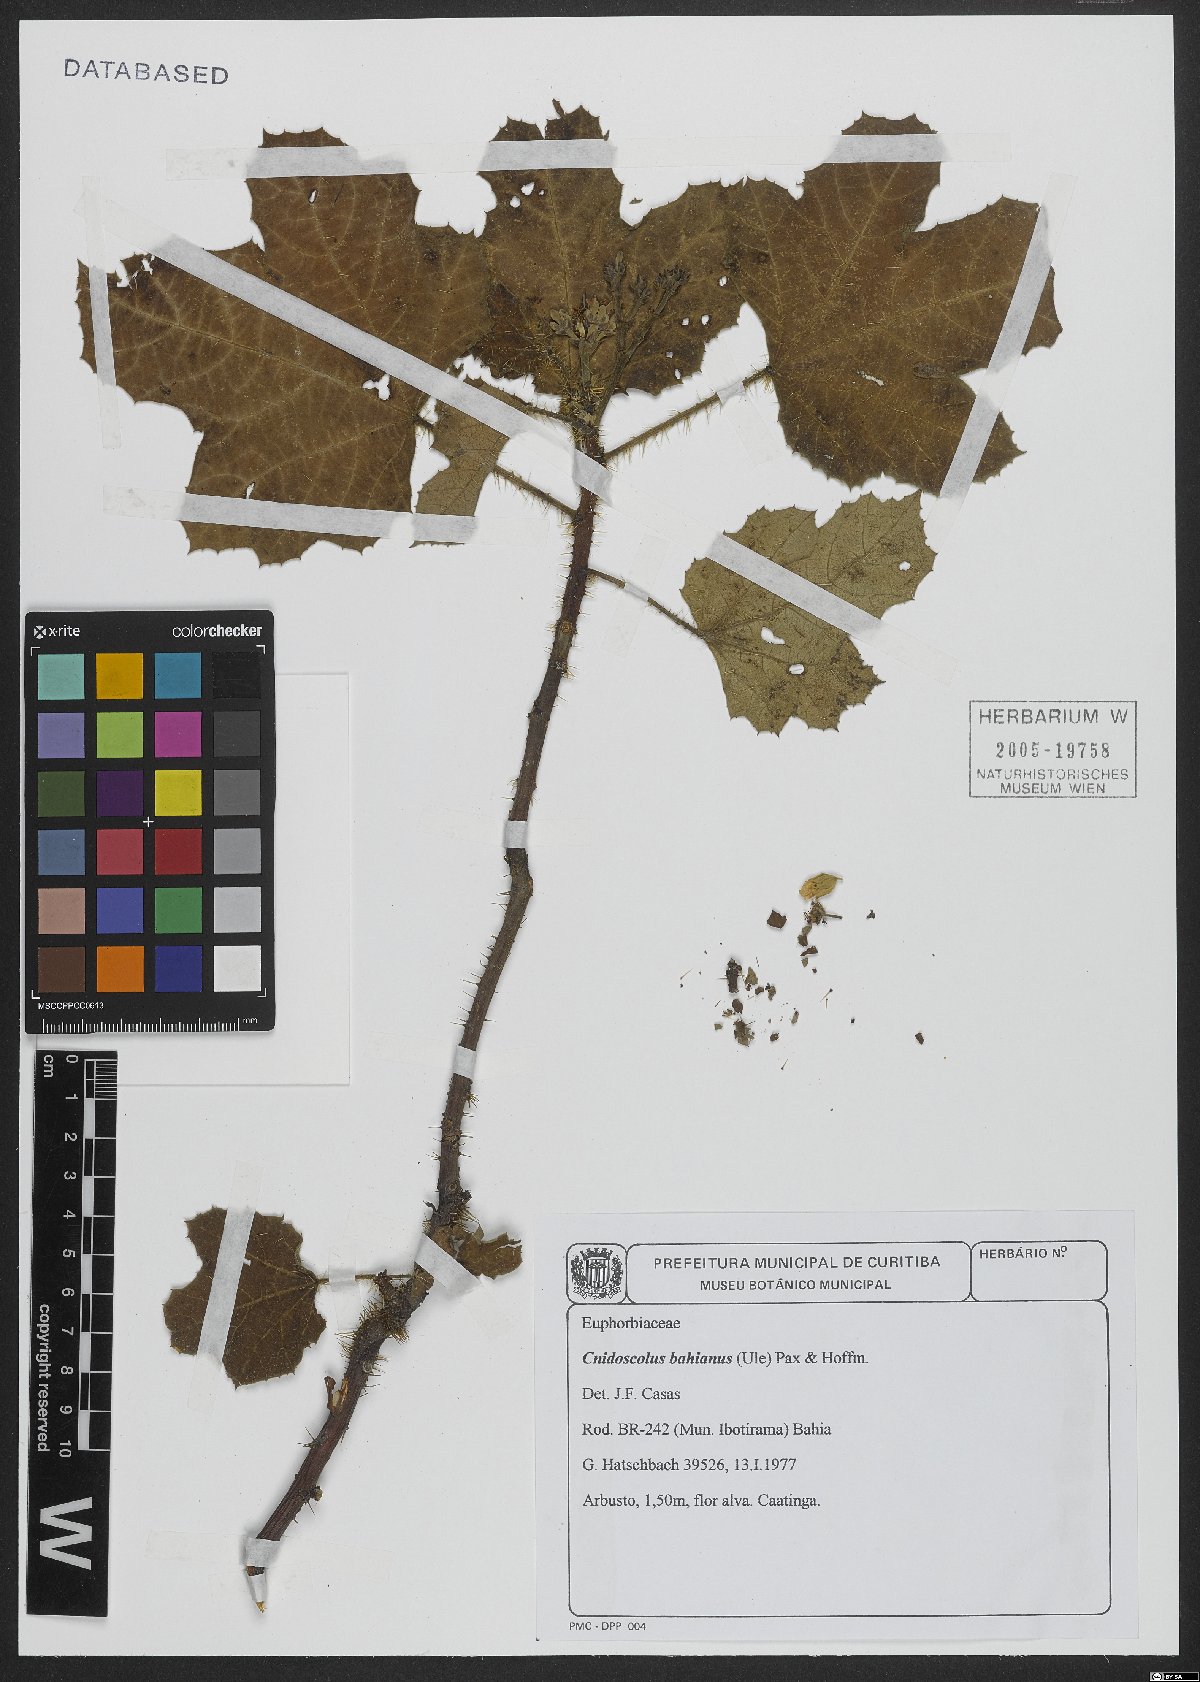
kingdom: Plantae
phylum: Tracheophyta
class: Magnoliopsida
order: Malpighiales
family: Euphorbiaceae
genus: Cnidoscolus
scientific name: Cnidoscolus bahianus
